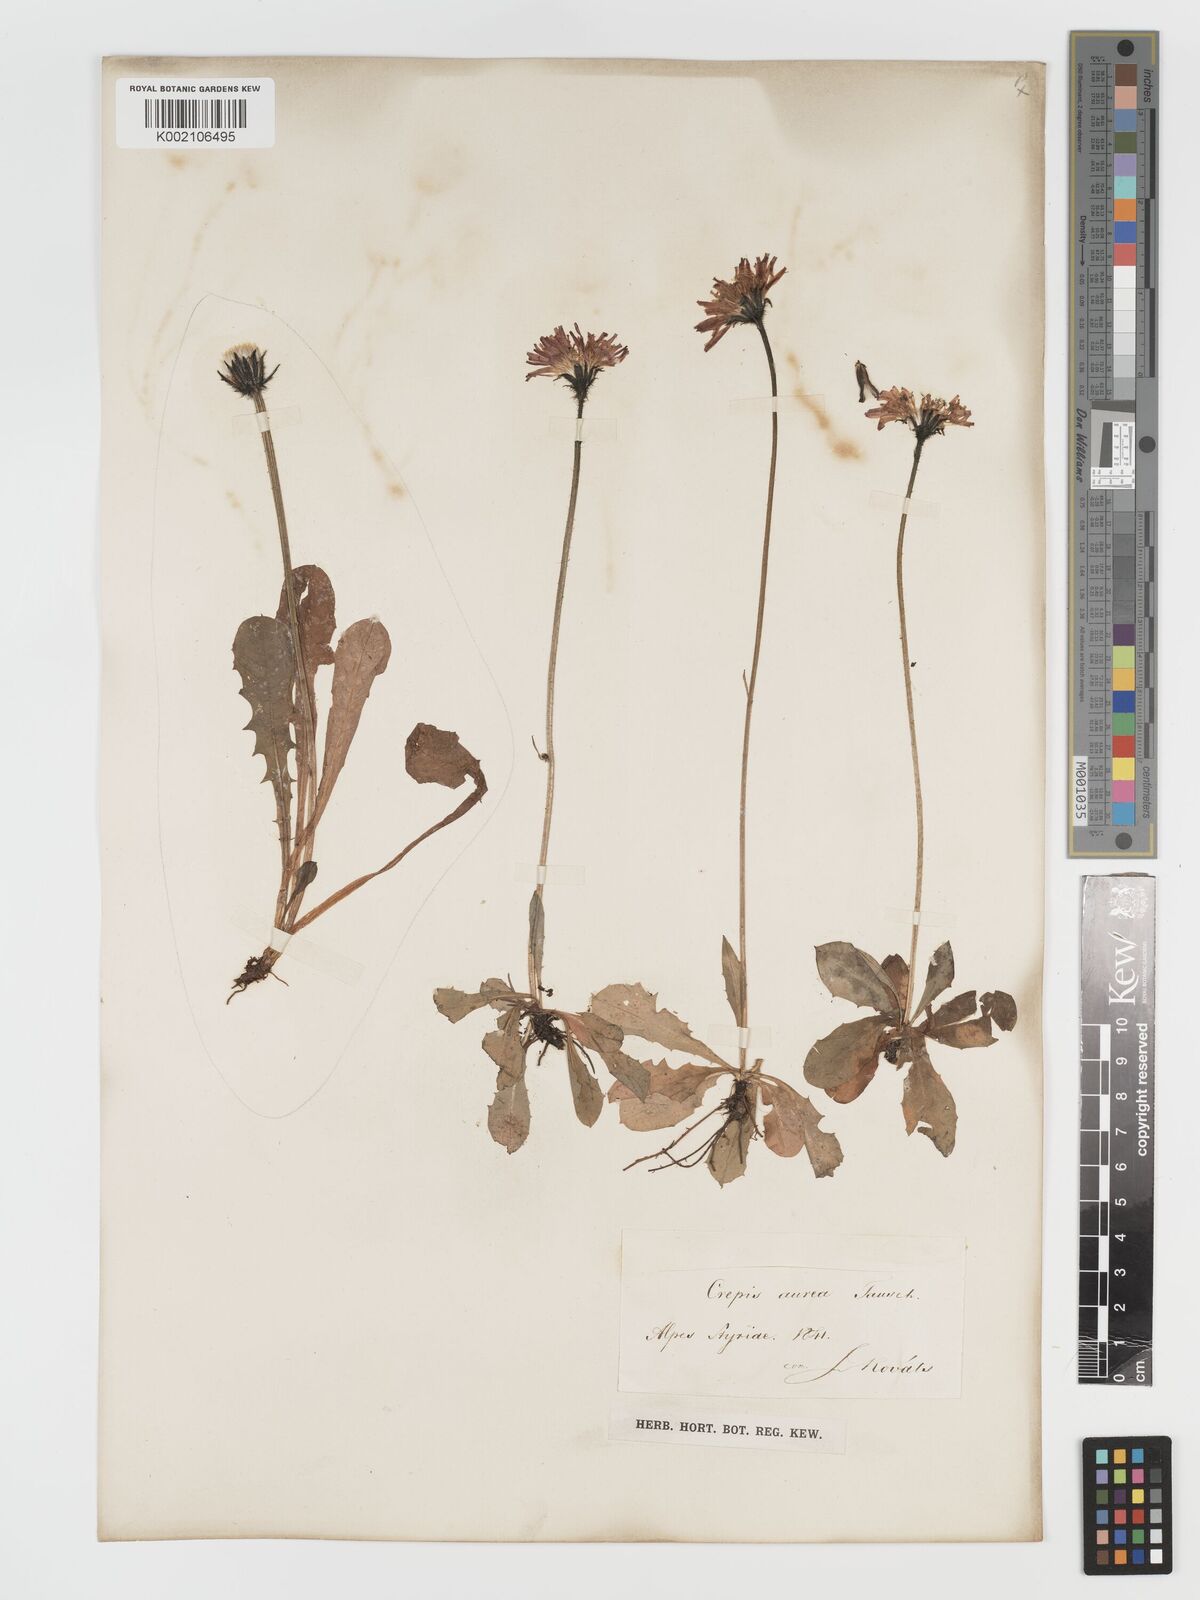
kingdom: Plantae
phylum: Tracheophyta
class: Magnoliopsida
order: Asterales
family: Asteraceae
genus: Crepis
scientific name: Crepis aurea
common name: Golden hawk's-beard
